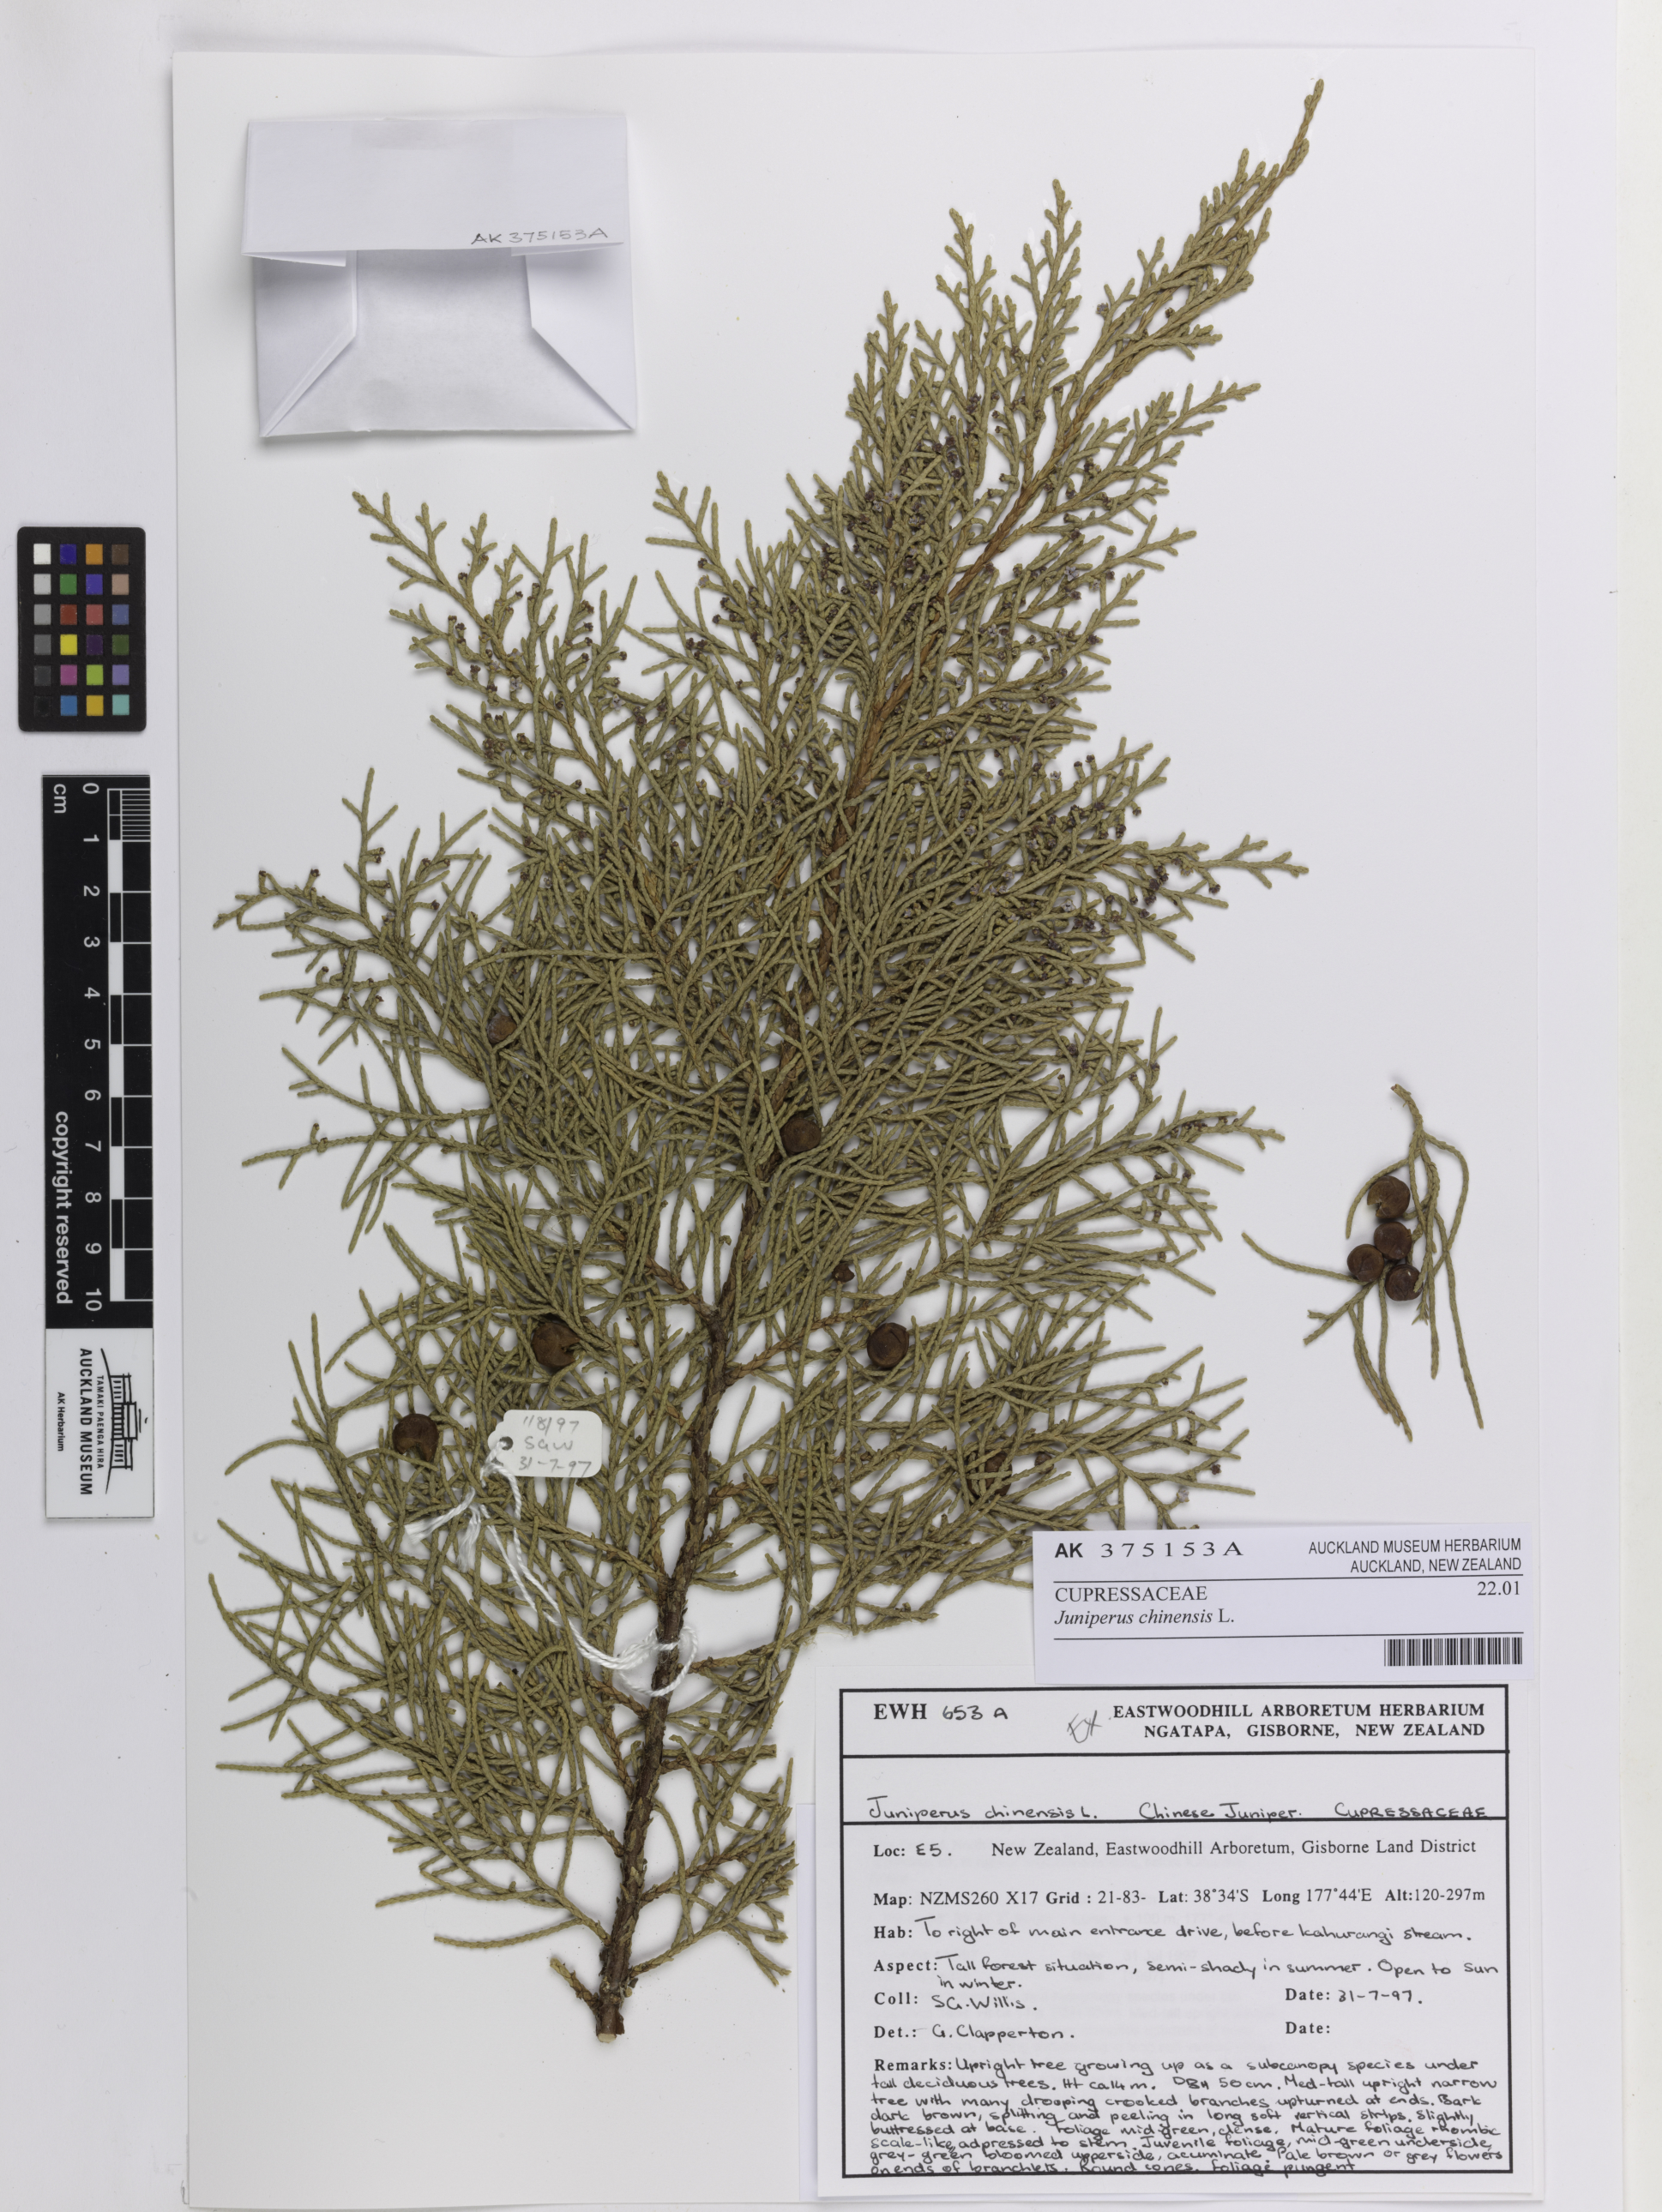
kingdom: Plantae
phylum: Tracheophyta
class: Pinopsida
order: Pinales
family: Cupressaceae
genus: Juniperus
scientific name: Juniperus chinensis
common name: Chinese juniper
